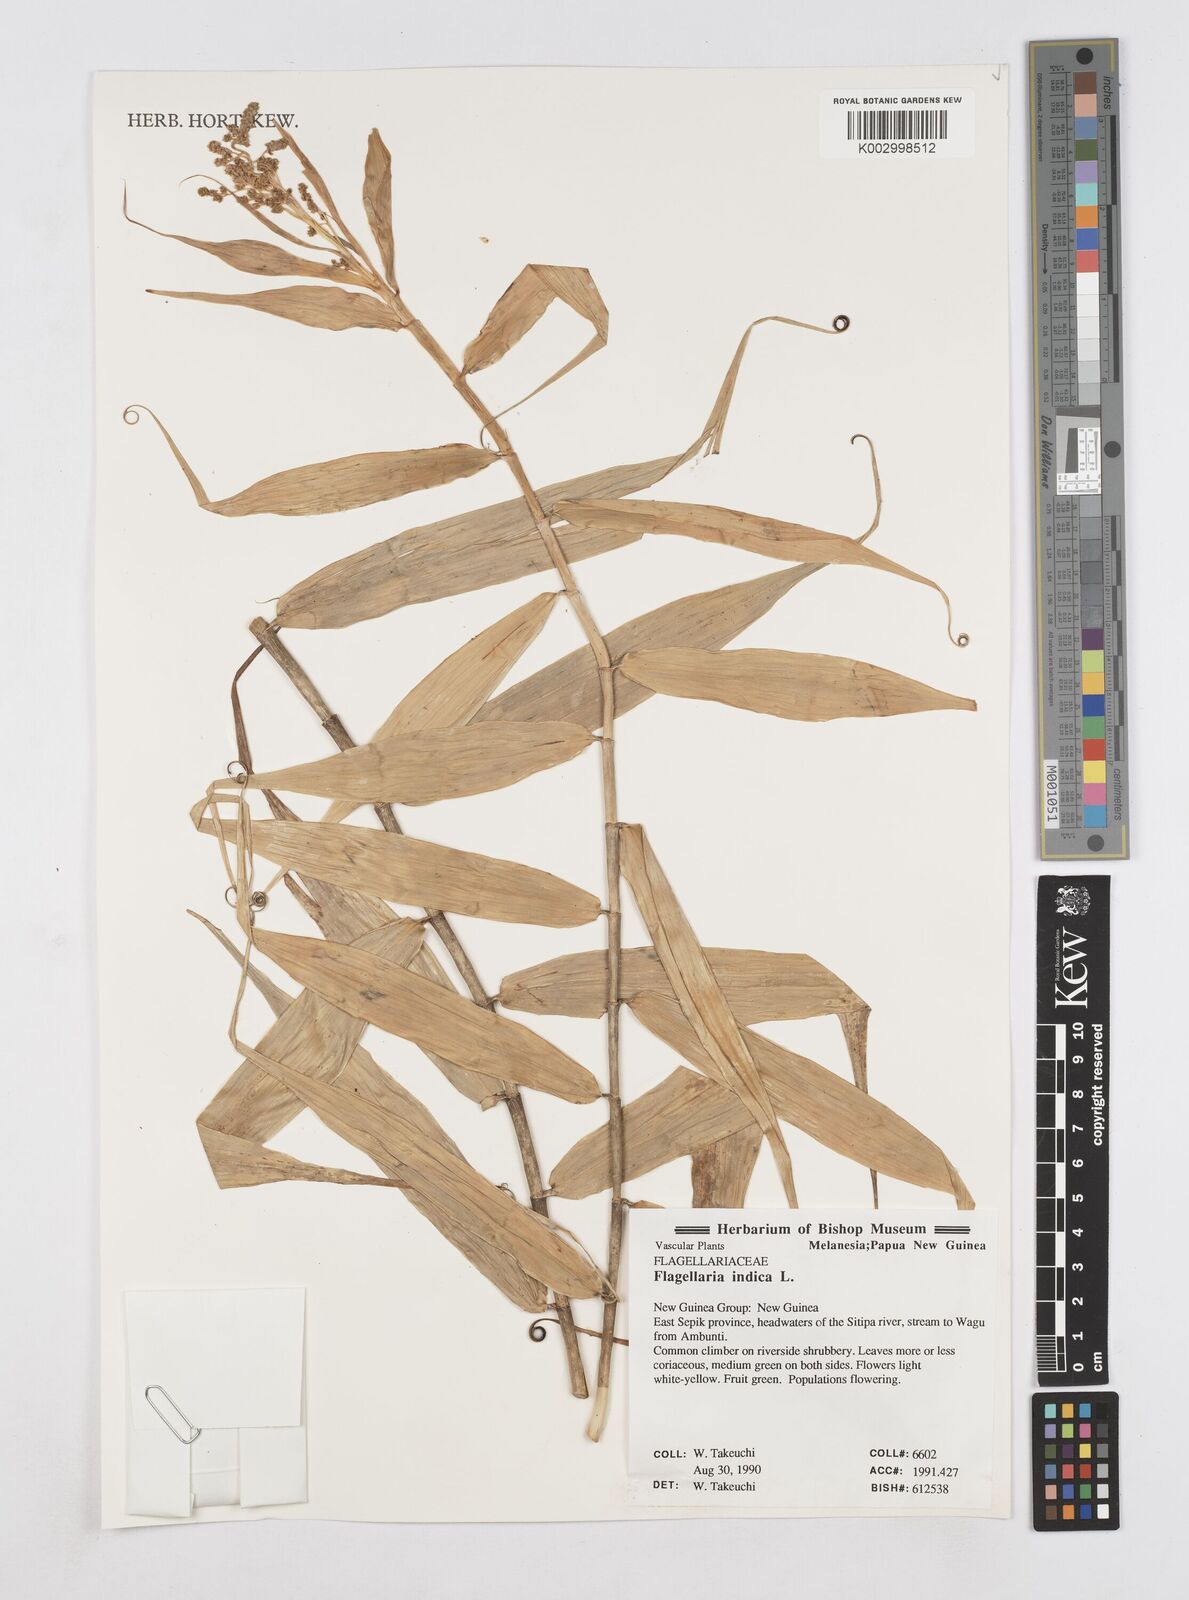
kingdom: Plantae
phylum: Tracheophyta
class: Liliopsida
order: Poales
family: Flagellariaceae
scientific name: Flagellariaceae
